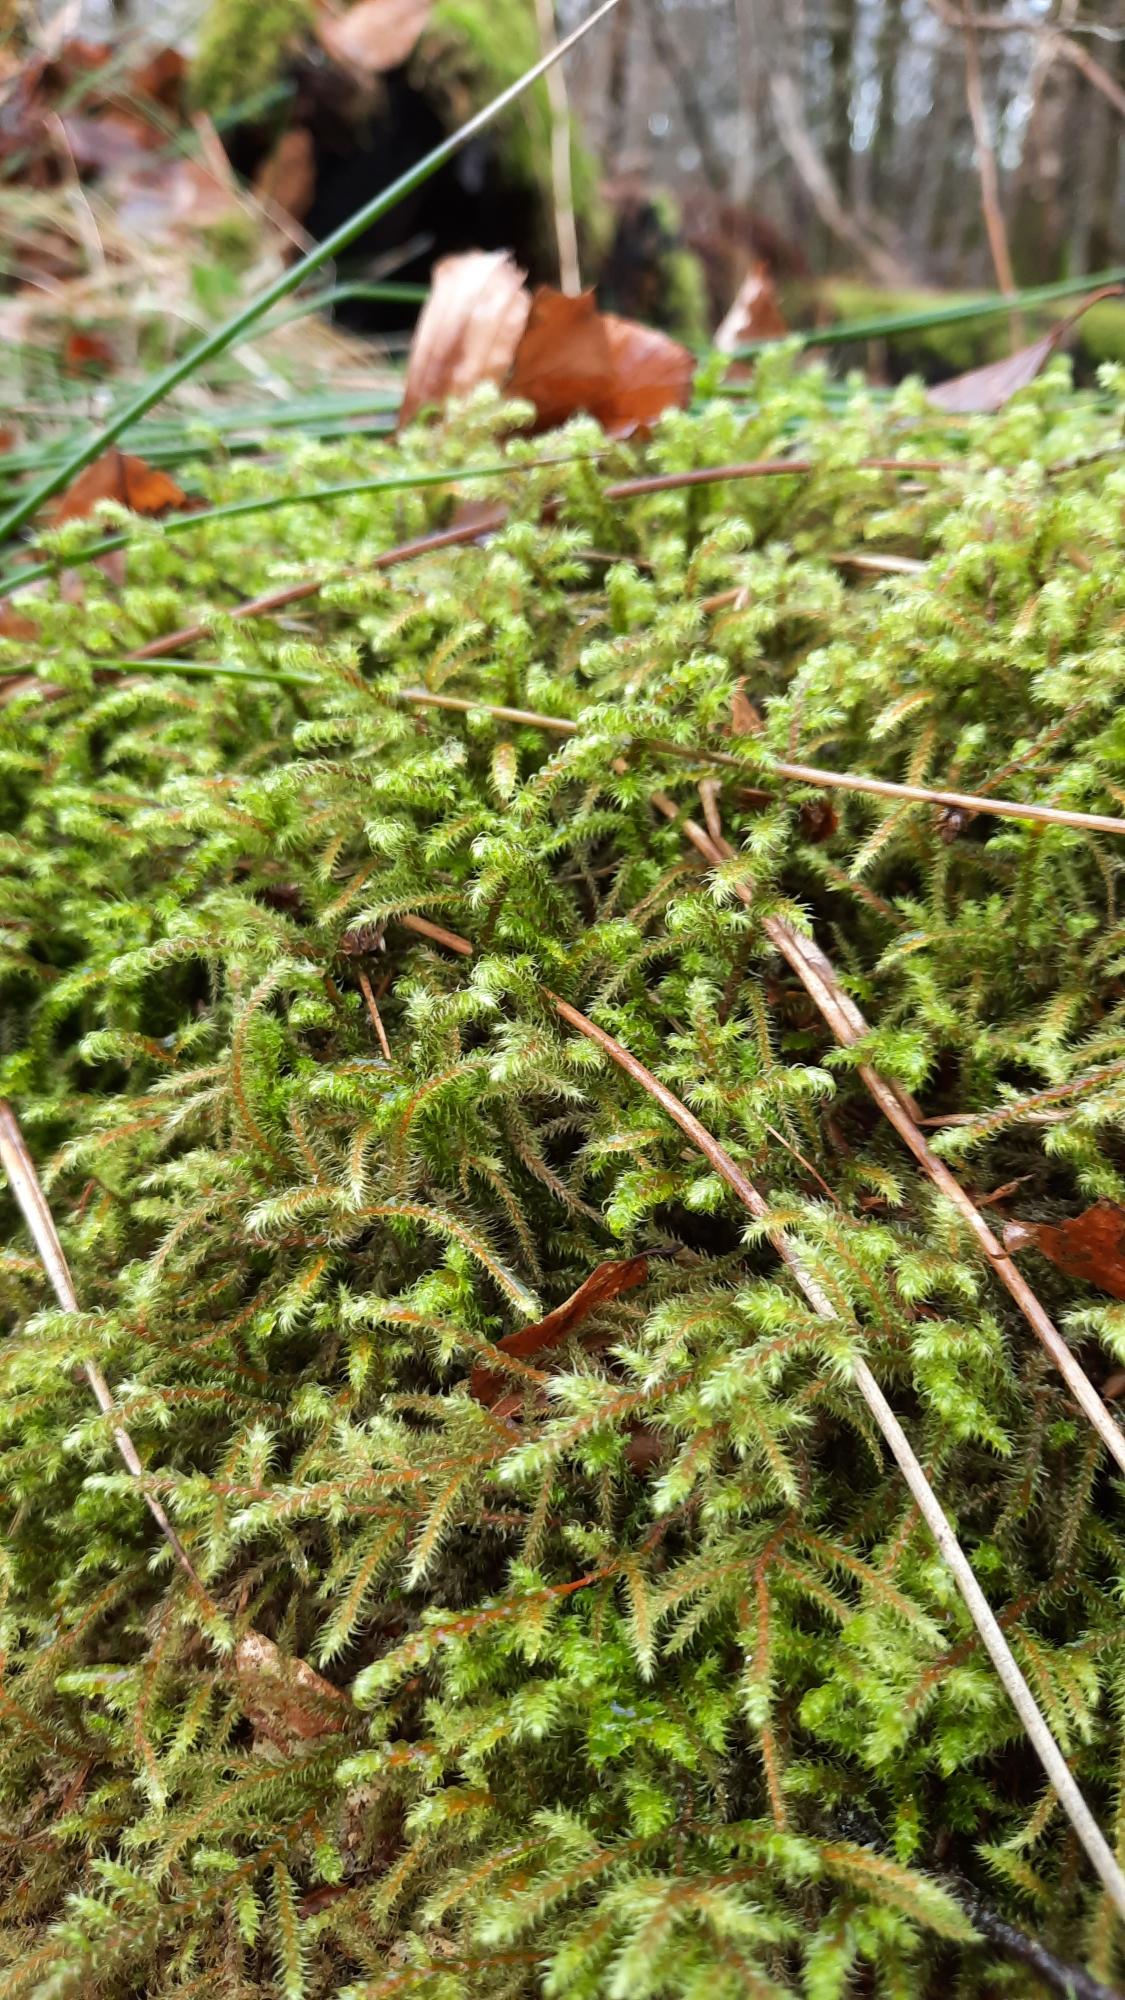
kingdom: Plantae
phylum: Bryophyta
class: Bryopsida
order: Hypnales
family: Hylocomiaceae
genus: Rhytidiadelphus
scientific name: Rhytidiadelphus loreus
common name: Ulvefod-kransemos
